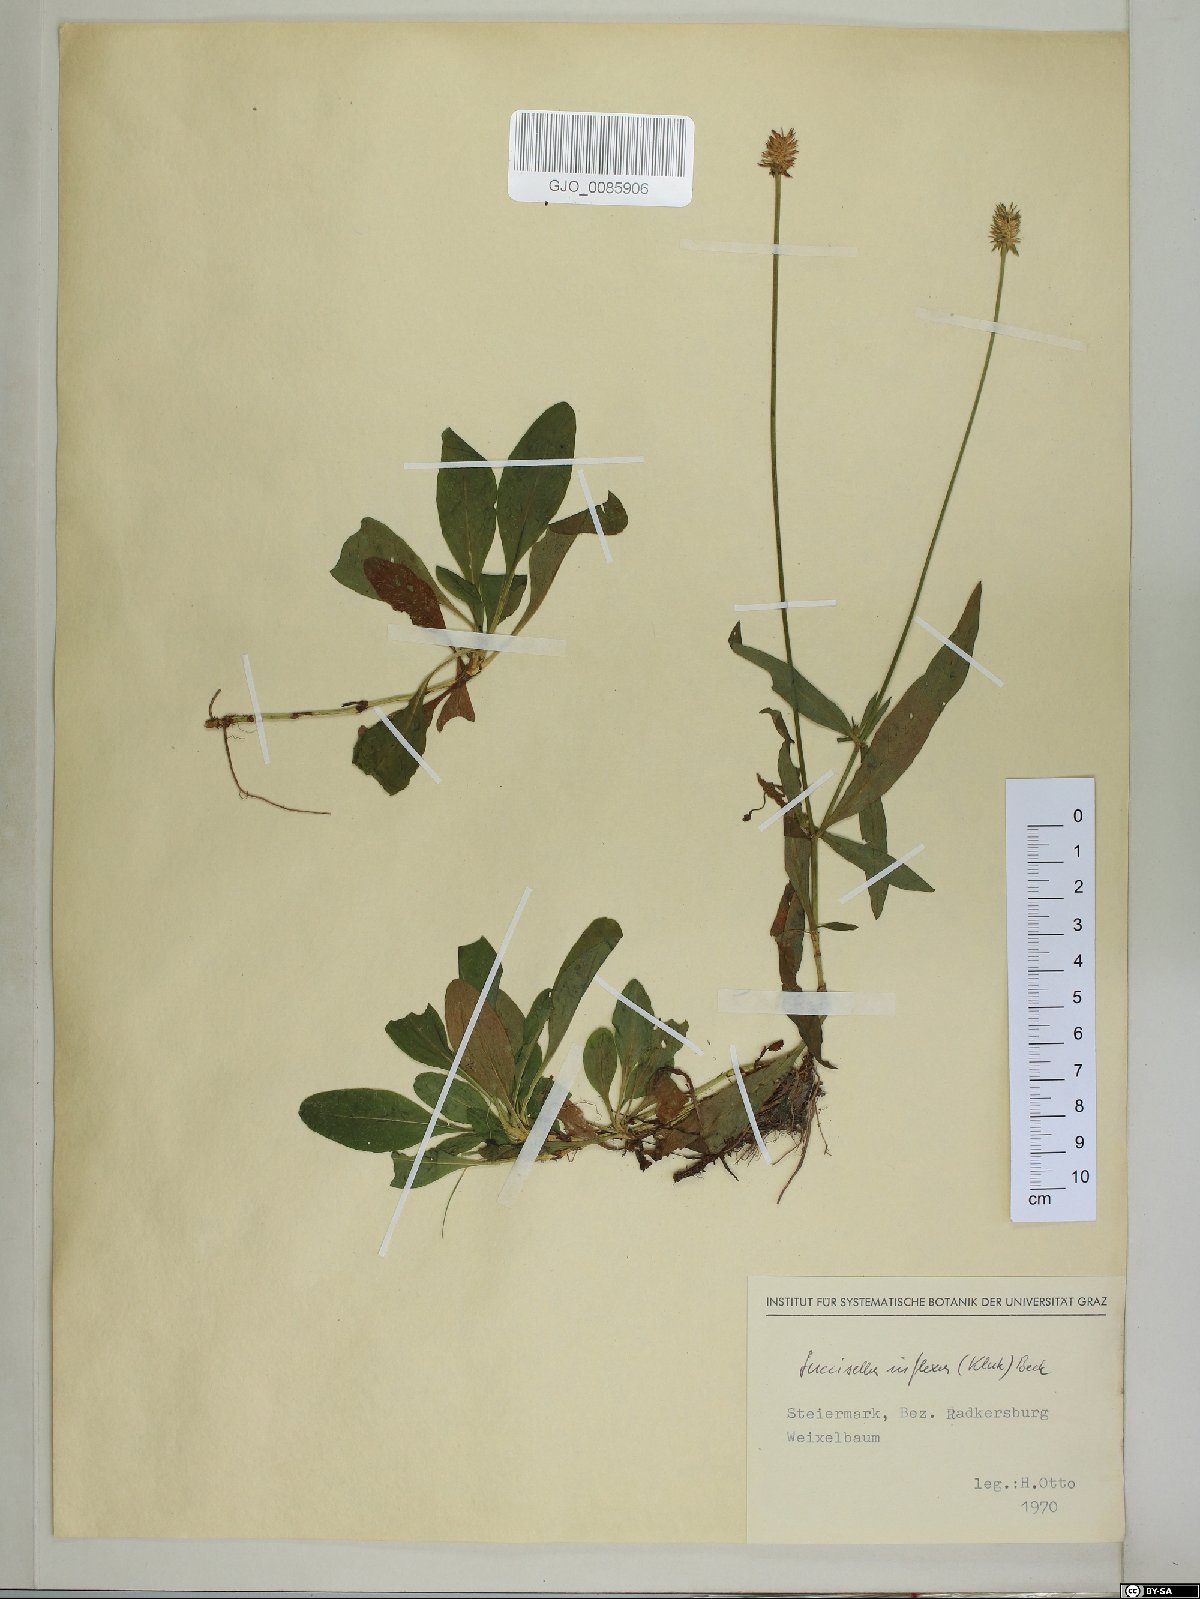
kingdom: Plantae
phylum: Tracheophyta
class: Magnoliopsida
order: Dipsacales
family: Caprifoliaceae
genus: Succisella
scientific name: Succisella inflexa
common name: Southern succisella
